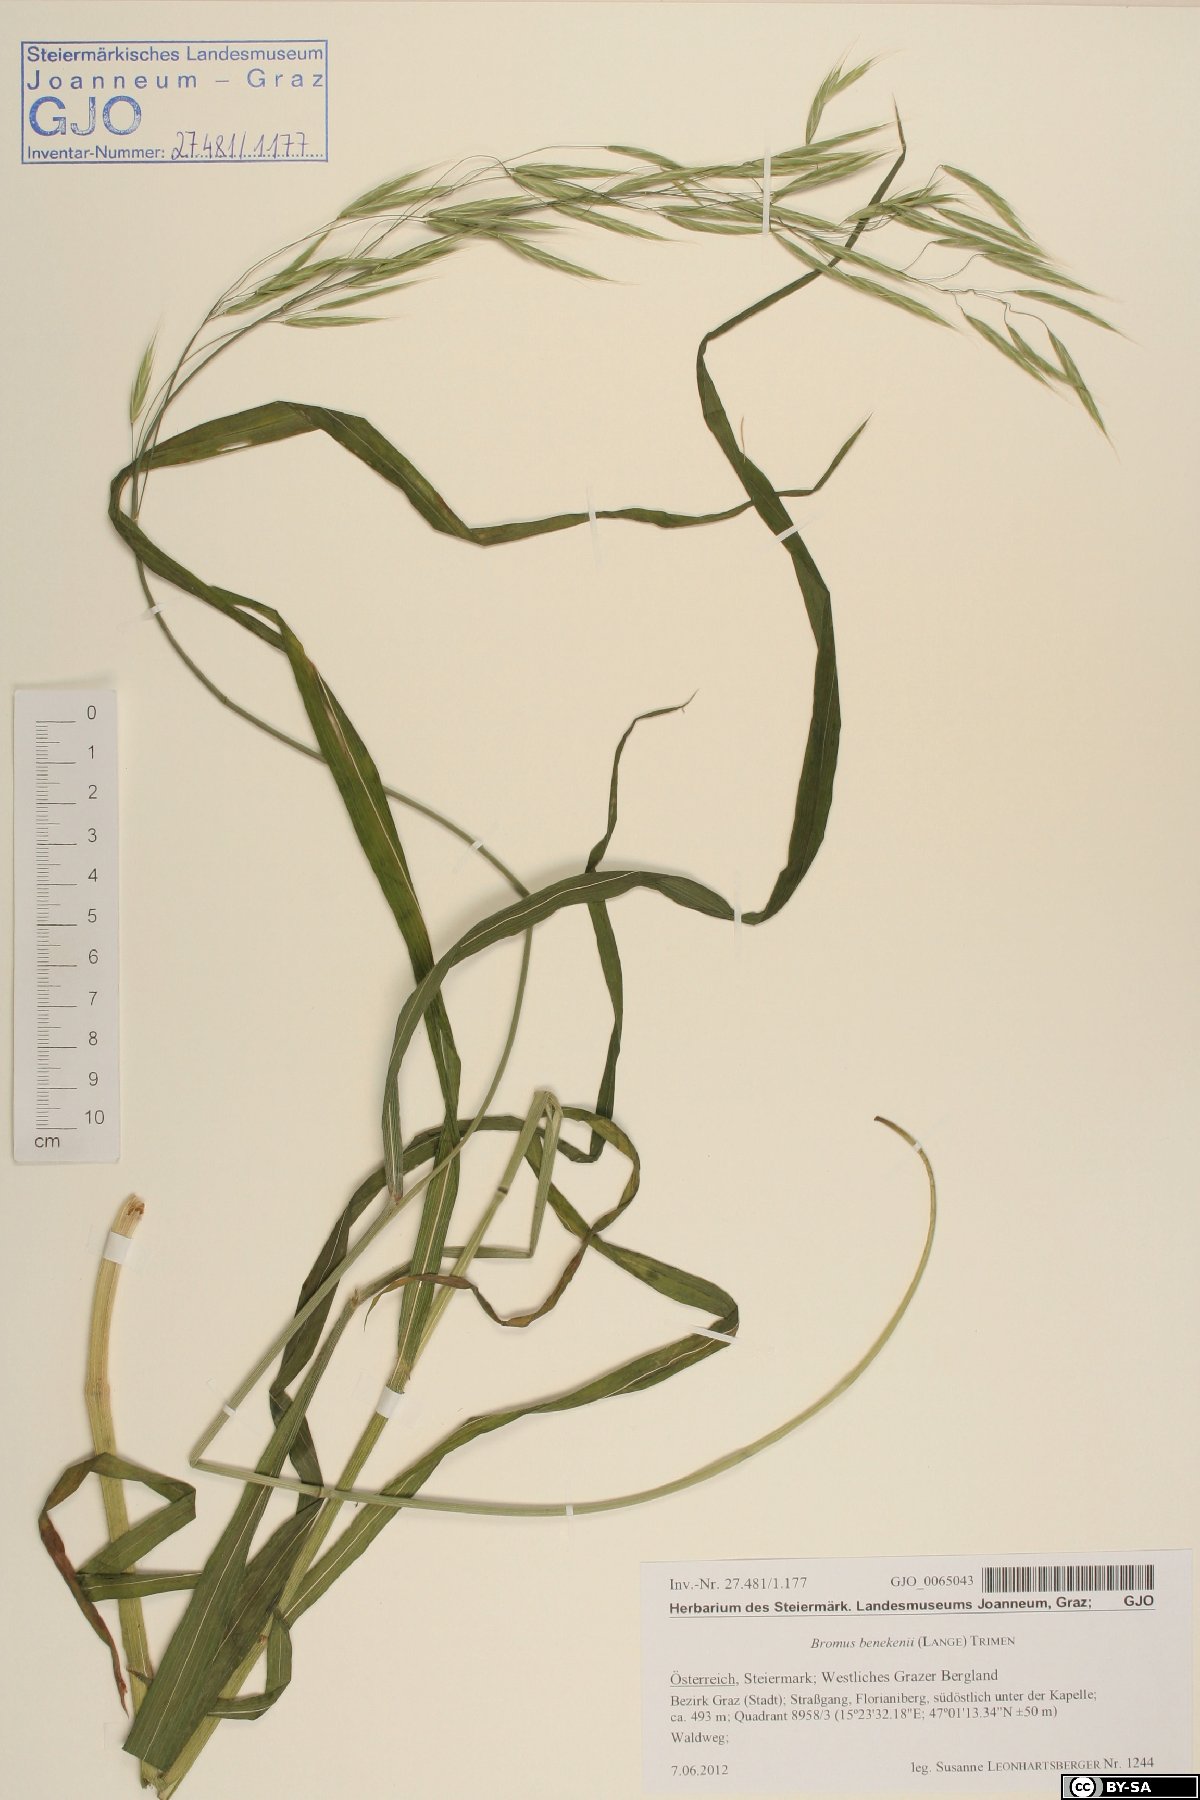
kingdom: Plantae
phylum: Tracheophyta
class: Liliopsida
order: Poales
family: Poaceae
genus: Bromus
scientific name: Bromus benekenii
